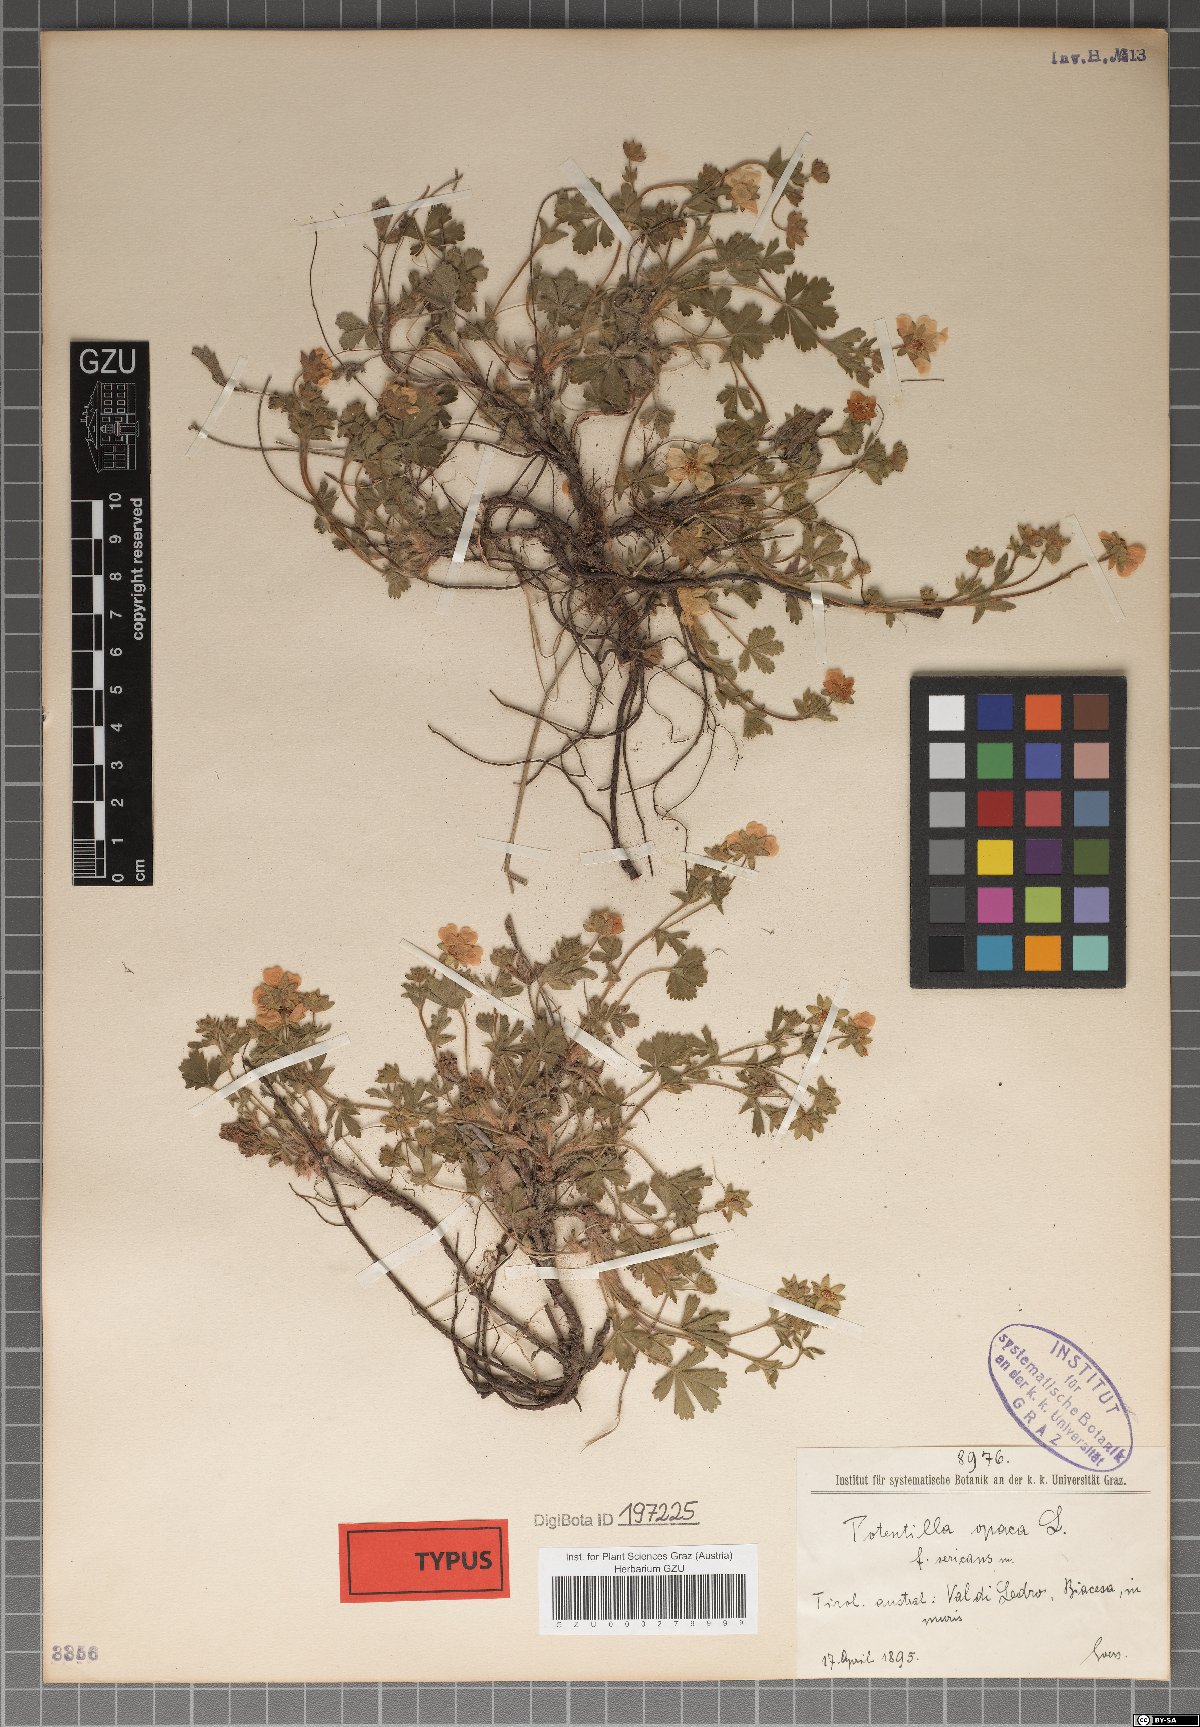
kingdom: Plantae
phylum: Tracheophyta
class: Magnoliopsida
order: Rosales
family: Rosaceae
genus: Potentilla
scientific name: Potentilla
